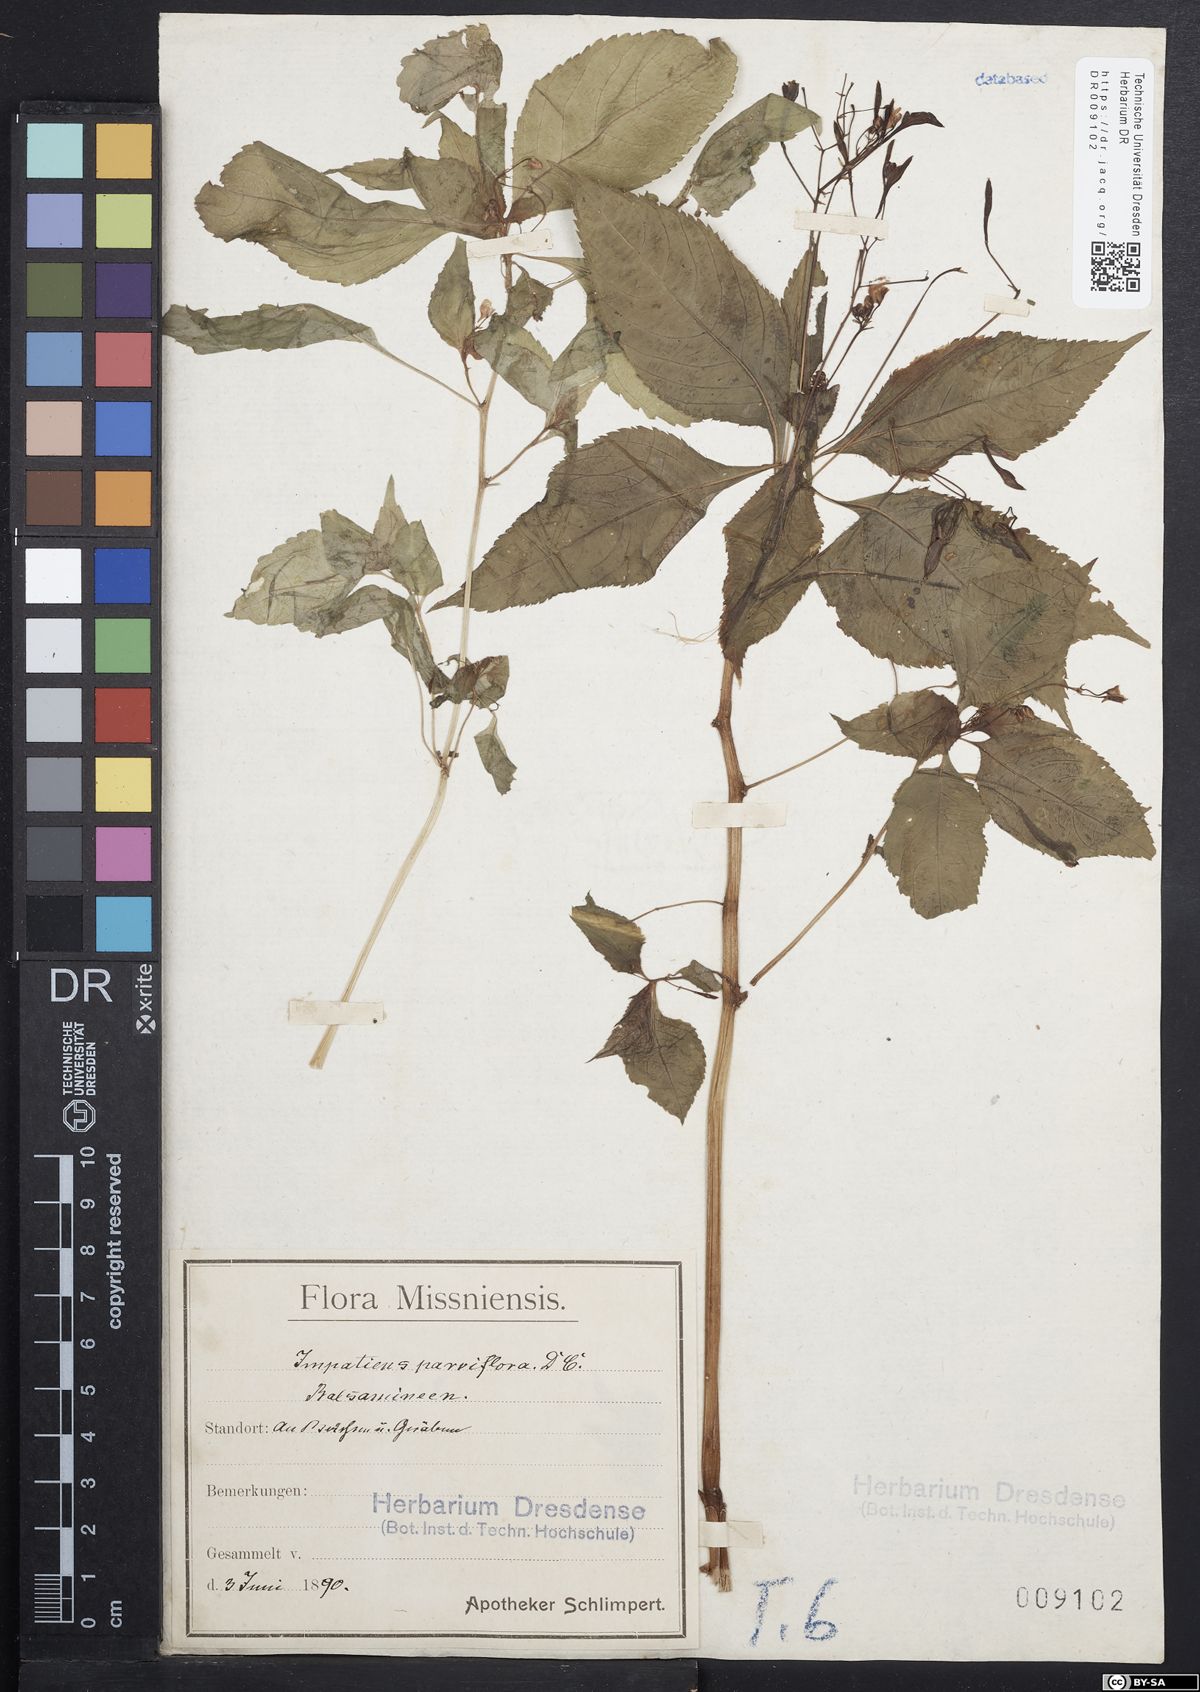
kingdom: Plantae
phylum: Tracheophyta
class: Magnoliopsida
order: Ericales
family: Balsaminaceae
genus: Impatiens
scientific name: Impatiens parviflora
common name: Small balsam
